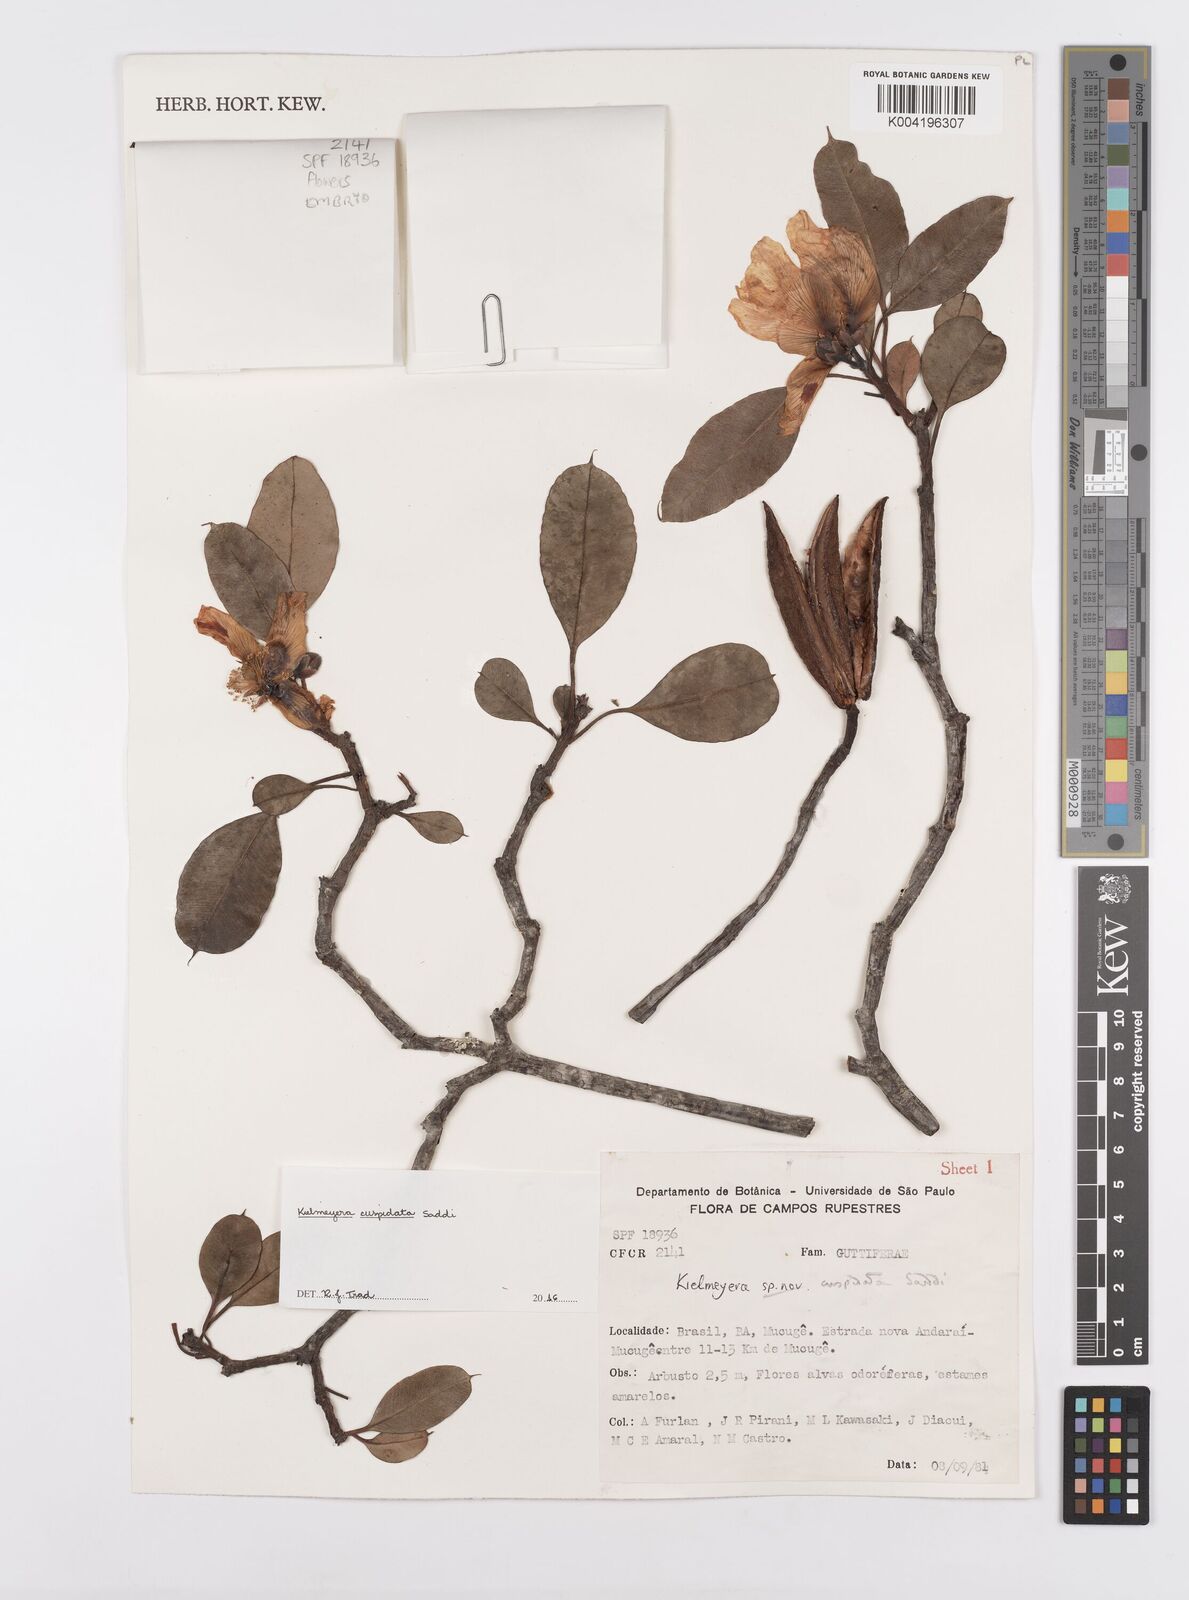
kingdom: Plantae
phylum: Tracheophyta
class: Magnoliopsida
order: Malpighiales
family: Calophyllaceae
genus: Kielmeyera
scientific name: Kielmeyera cuspidata
